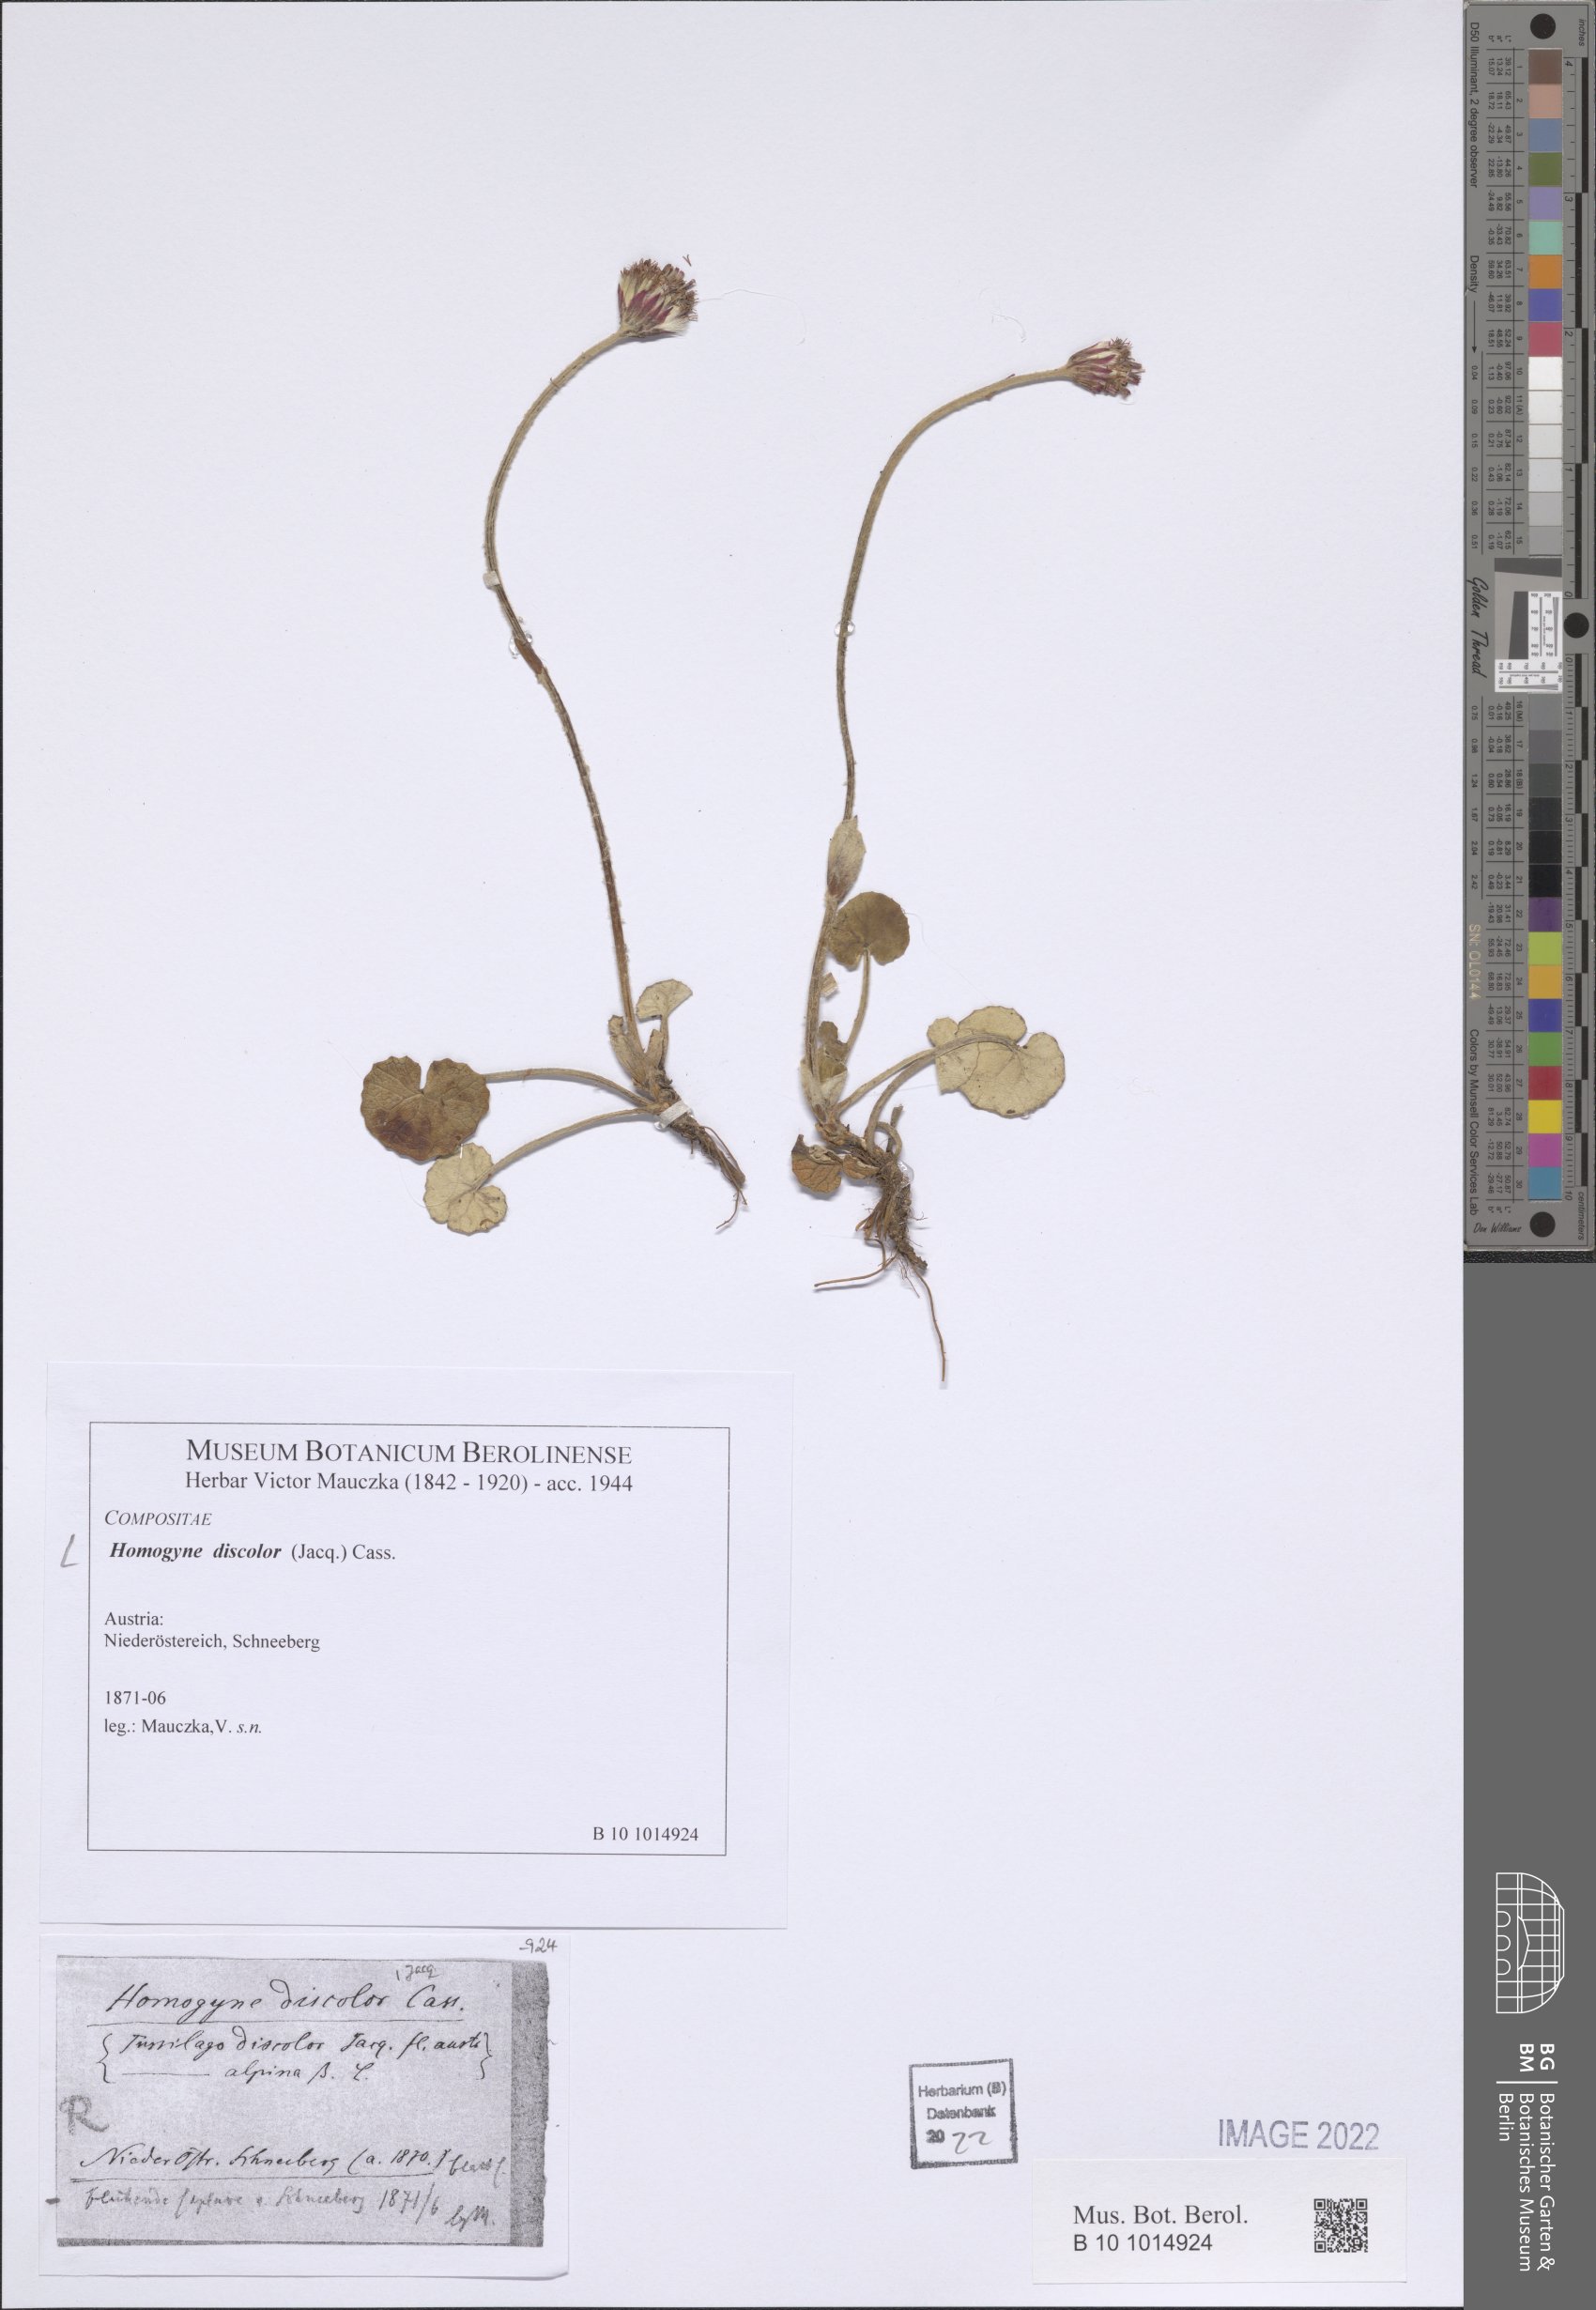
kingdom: Plantae
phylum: Tracheophyta
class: Magnoliopsida
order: Asterales
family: Asteraceae
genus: Homogyne
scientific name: Homogyne discolor
